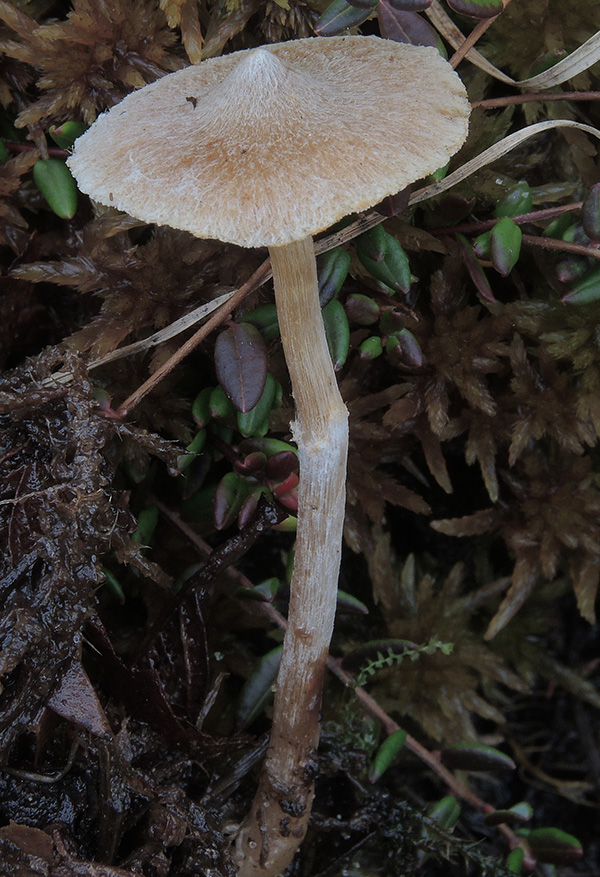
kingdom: Fungi
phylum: Basidiomycota
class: Agaricomycetes
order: Agaricales
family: Cortinariaceae
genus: Cortinarius
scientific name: Cortinarius expallens
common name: bomulds-slørhat
